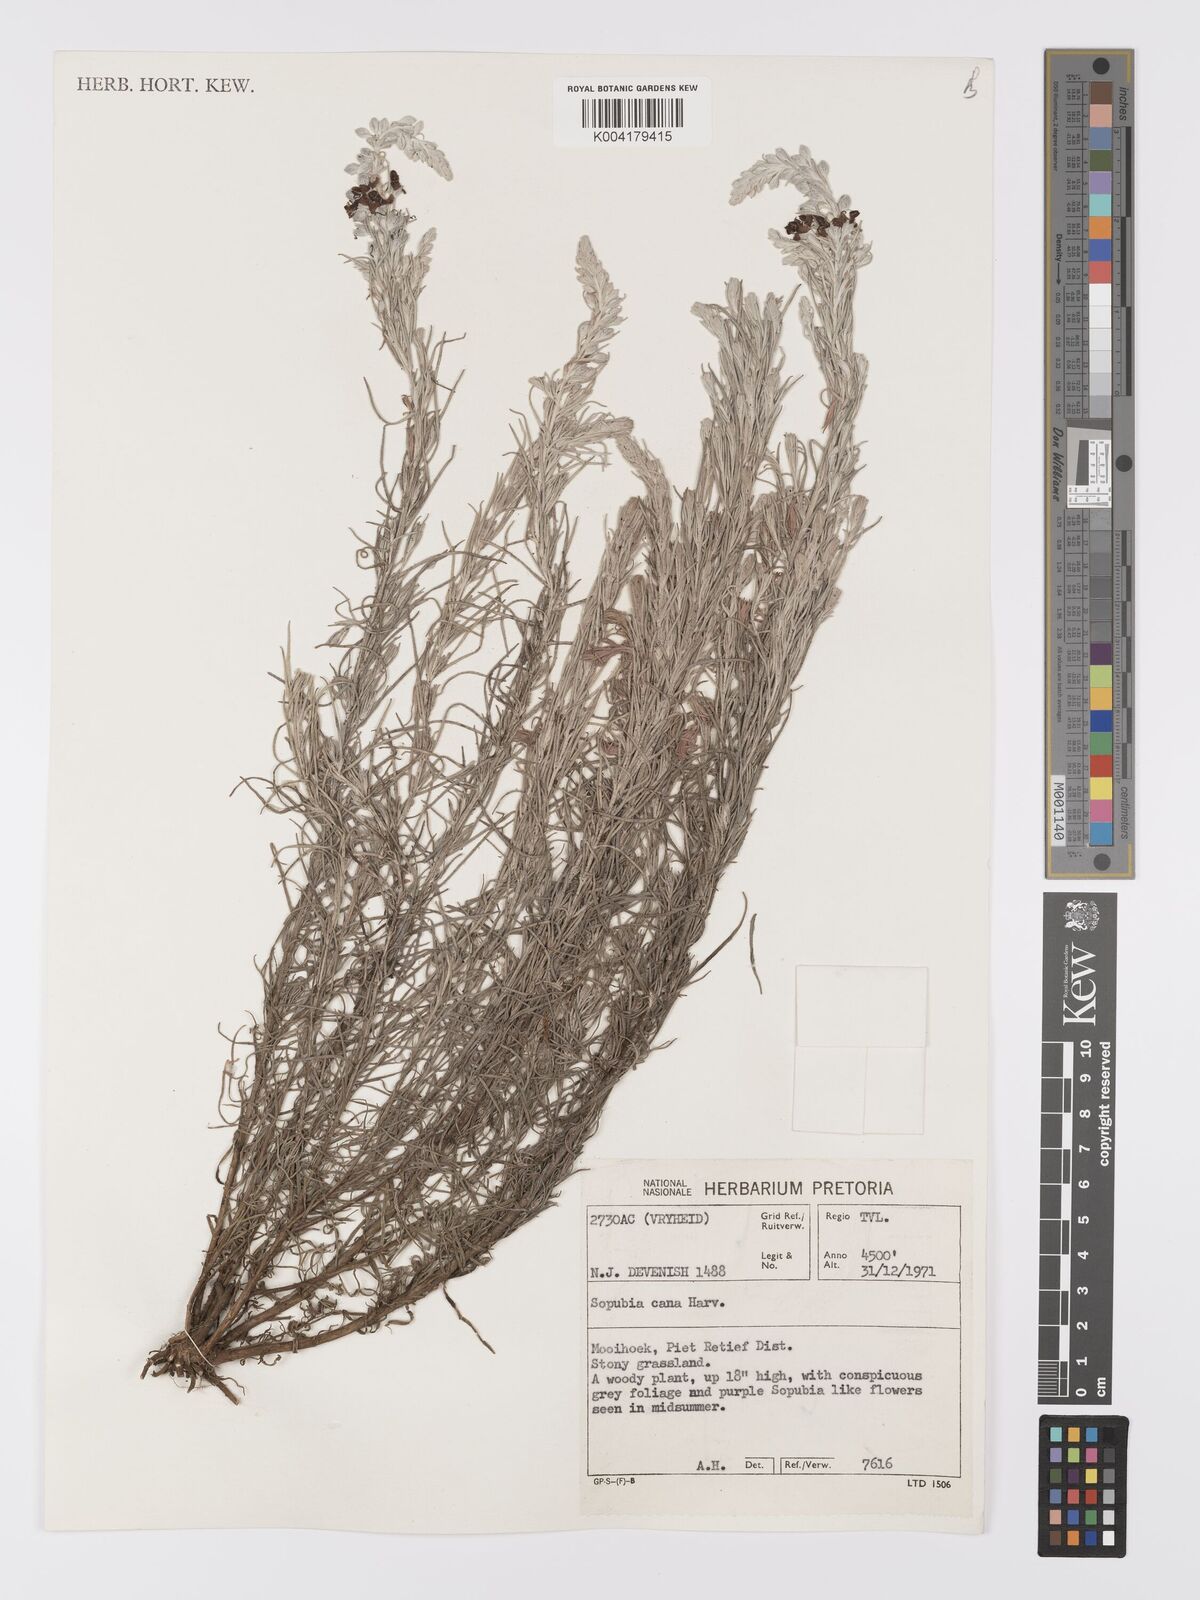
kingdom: Plantae
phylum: Tracheophyta
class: Magnoliopsida
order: Lamiales
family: Orobanchaceae
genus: Sopubia
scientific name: Sopubia cana
